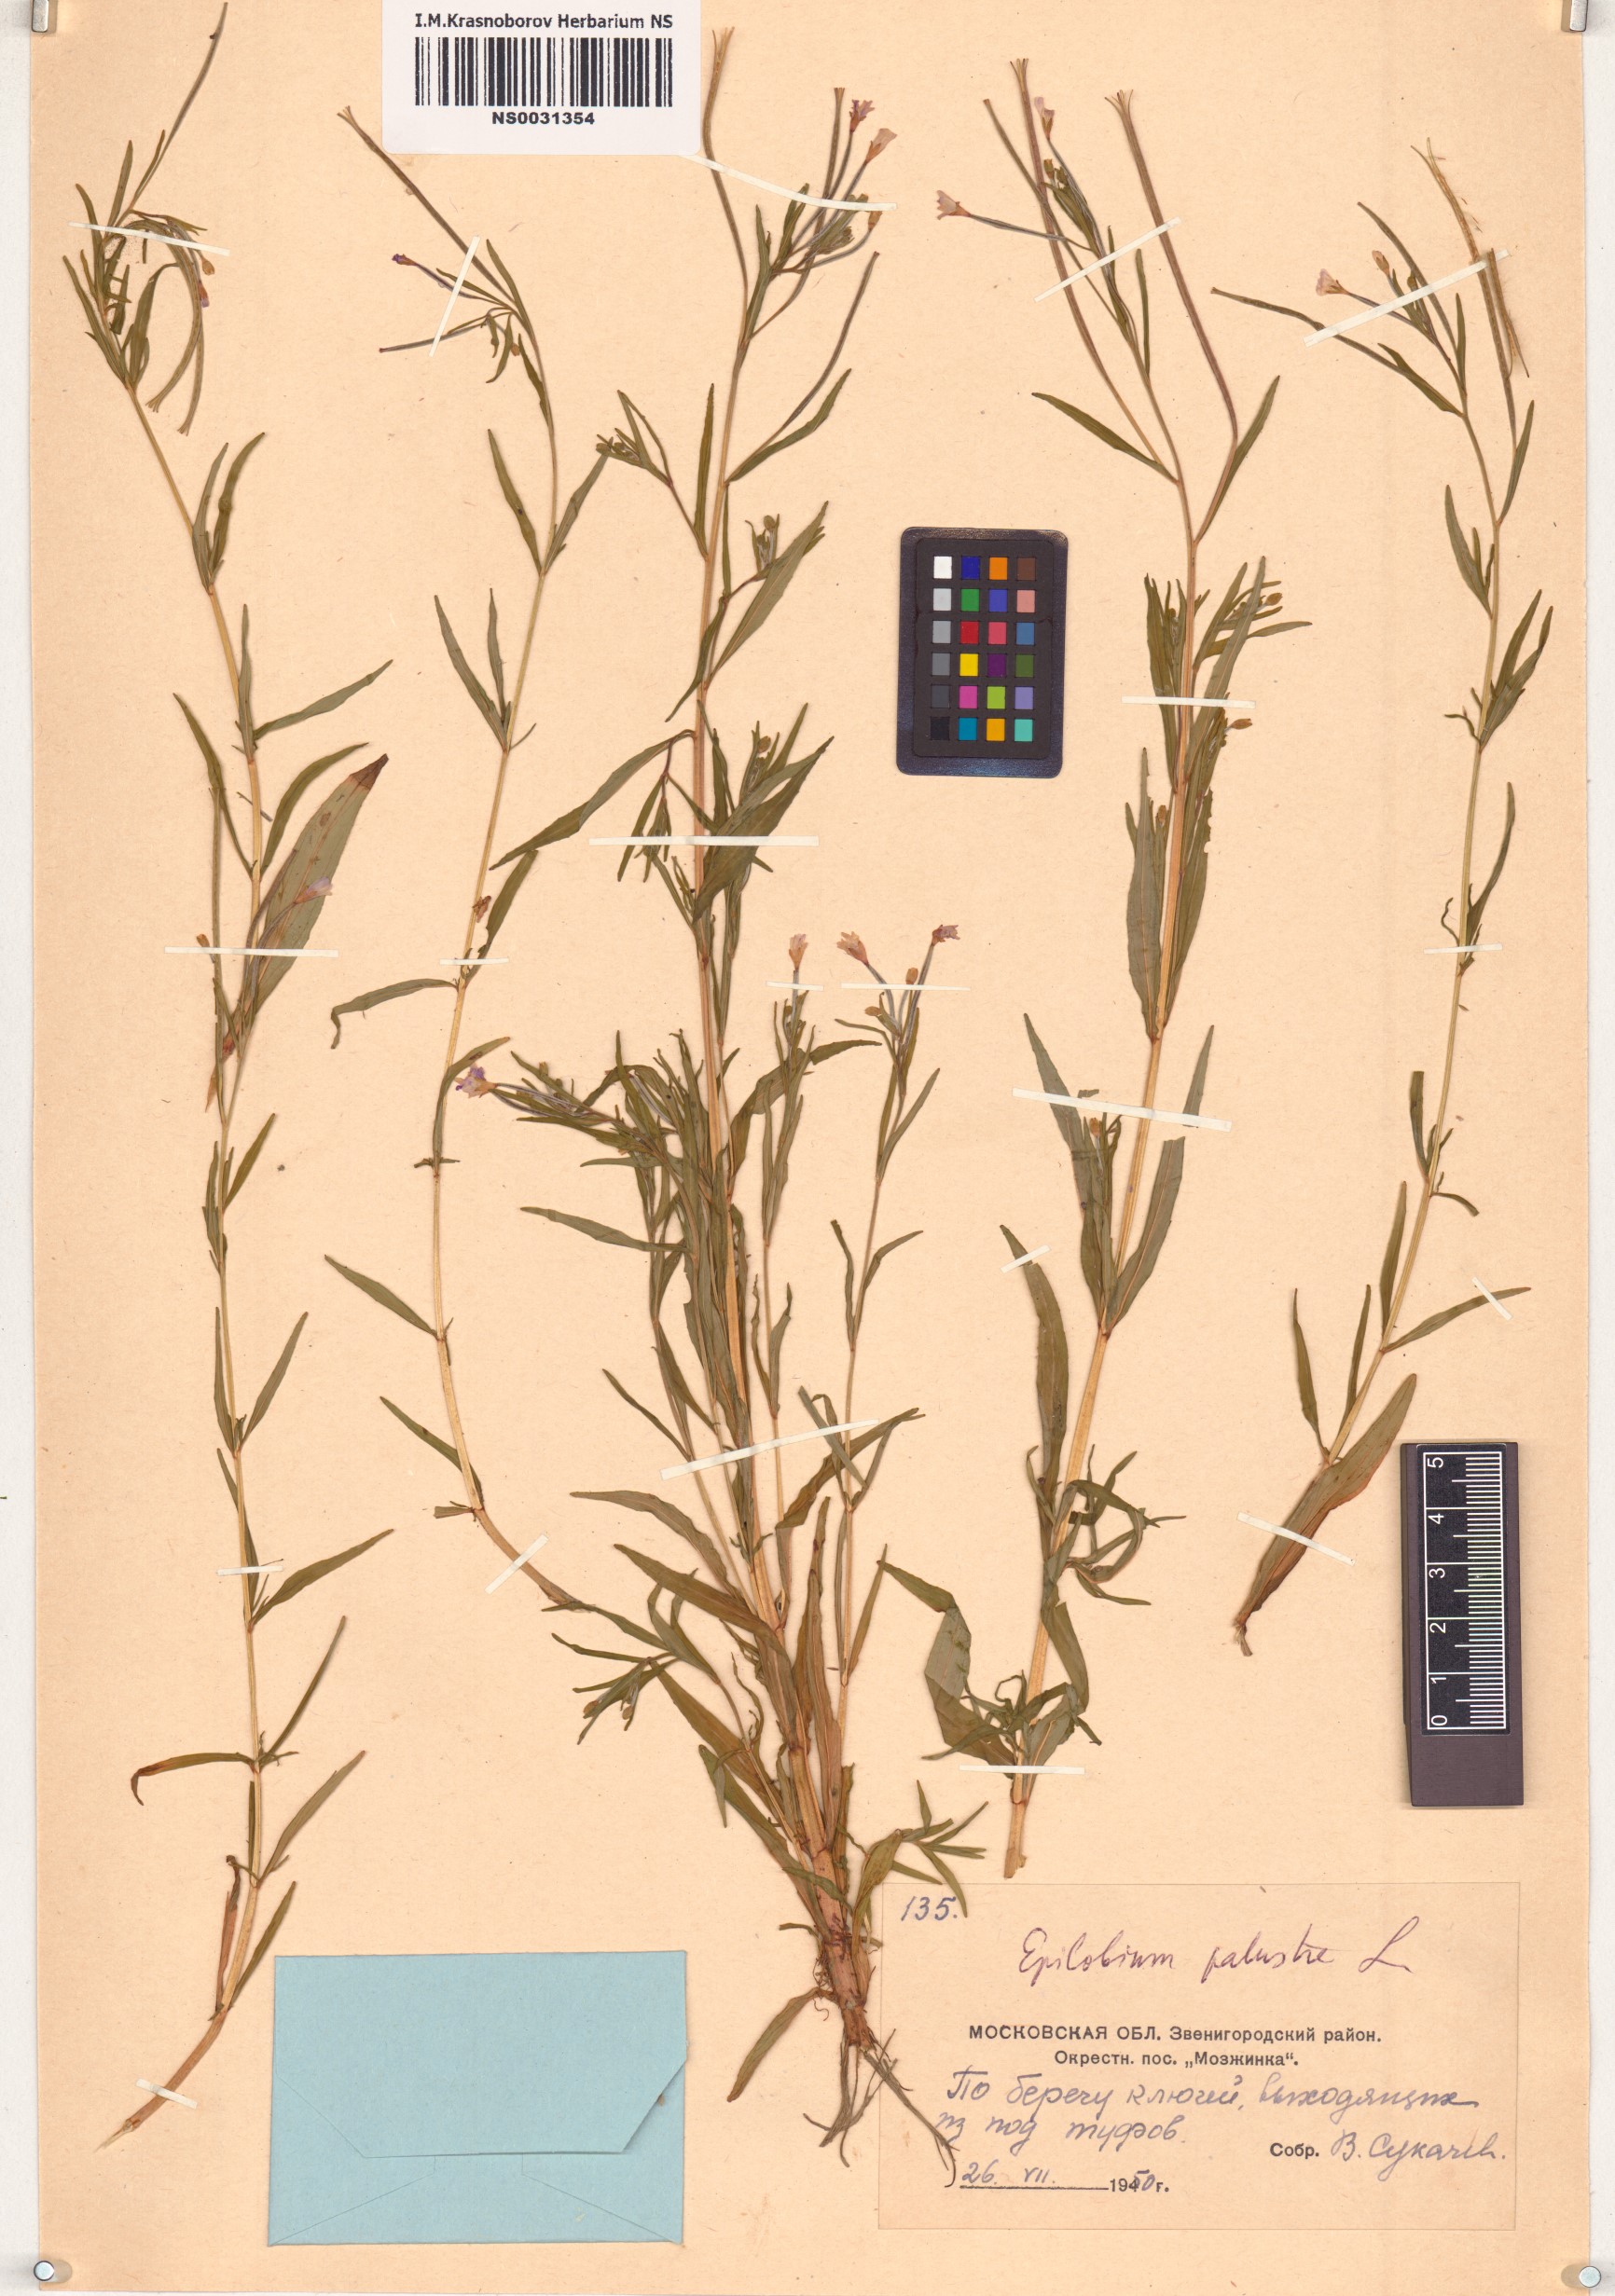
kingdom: Plantae
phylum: Tracheophyta
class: Magnoliopsida
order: Myrtales
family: Onagraceae
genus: Epilobium
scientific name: Epilobium palustre
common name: Marsh willowherb
